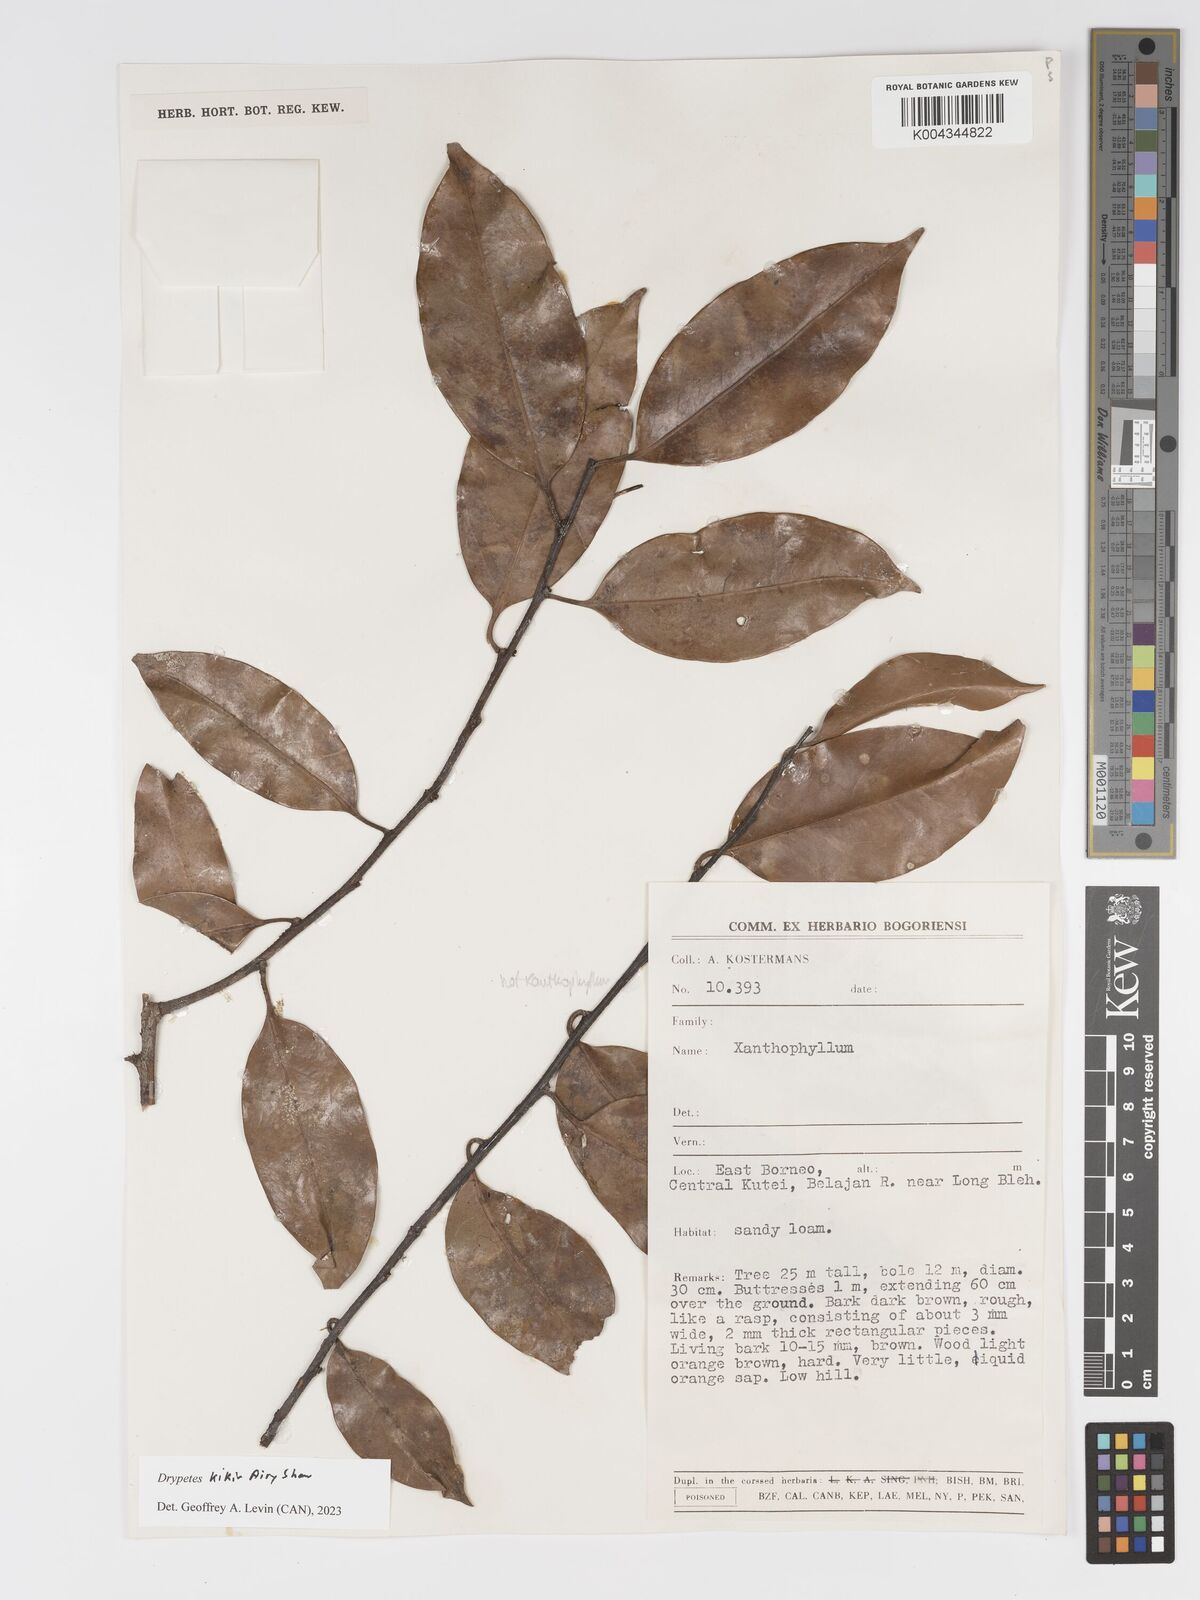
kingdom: Plantae
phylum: Tracheophyta
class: Magnoliopsida
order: Malpighiales
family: Putranjivaceae
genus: Drypetes
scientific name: Drypetes kikir
